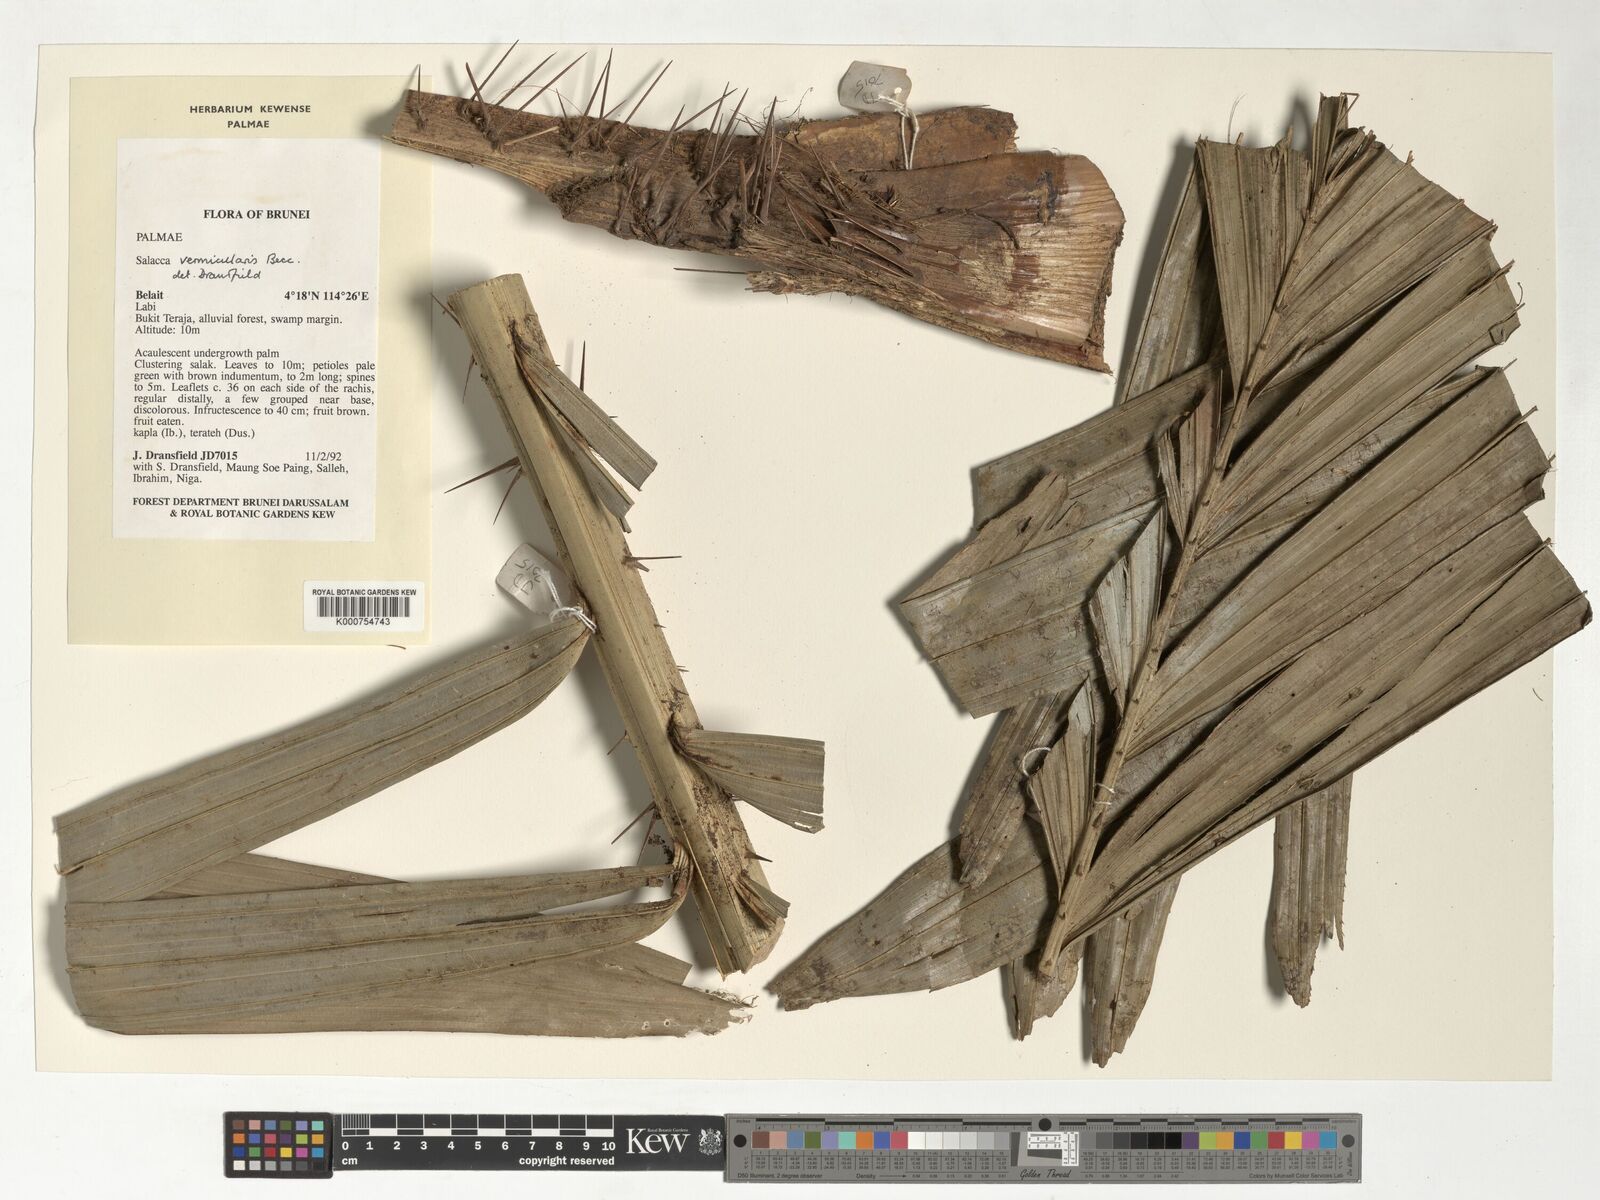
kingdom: Plantae
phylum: Tracheophyta
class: Liliopsida
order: Arecales
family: Arecaceae
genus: Salacca
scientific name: Salacca vermicularis
